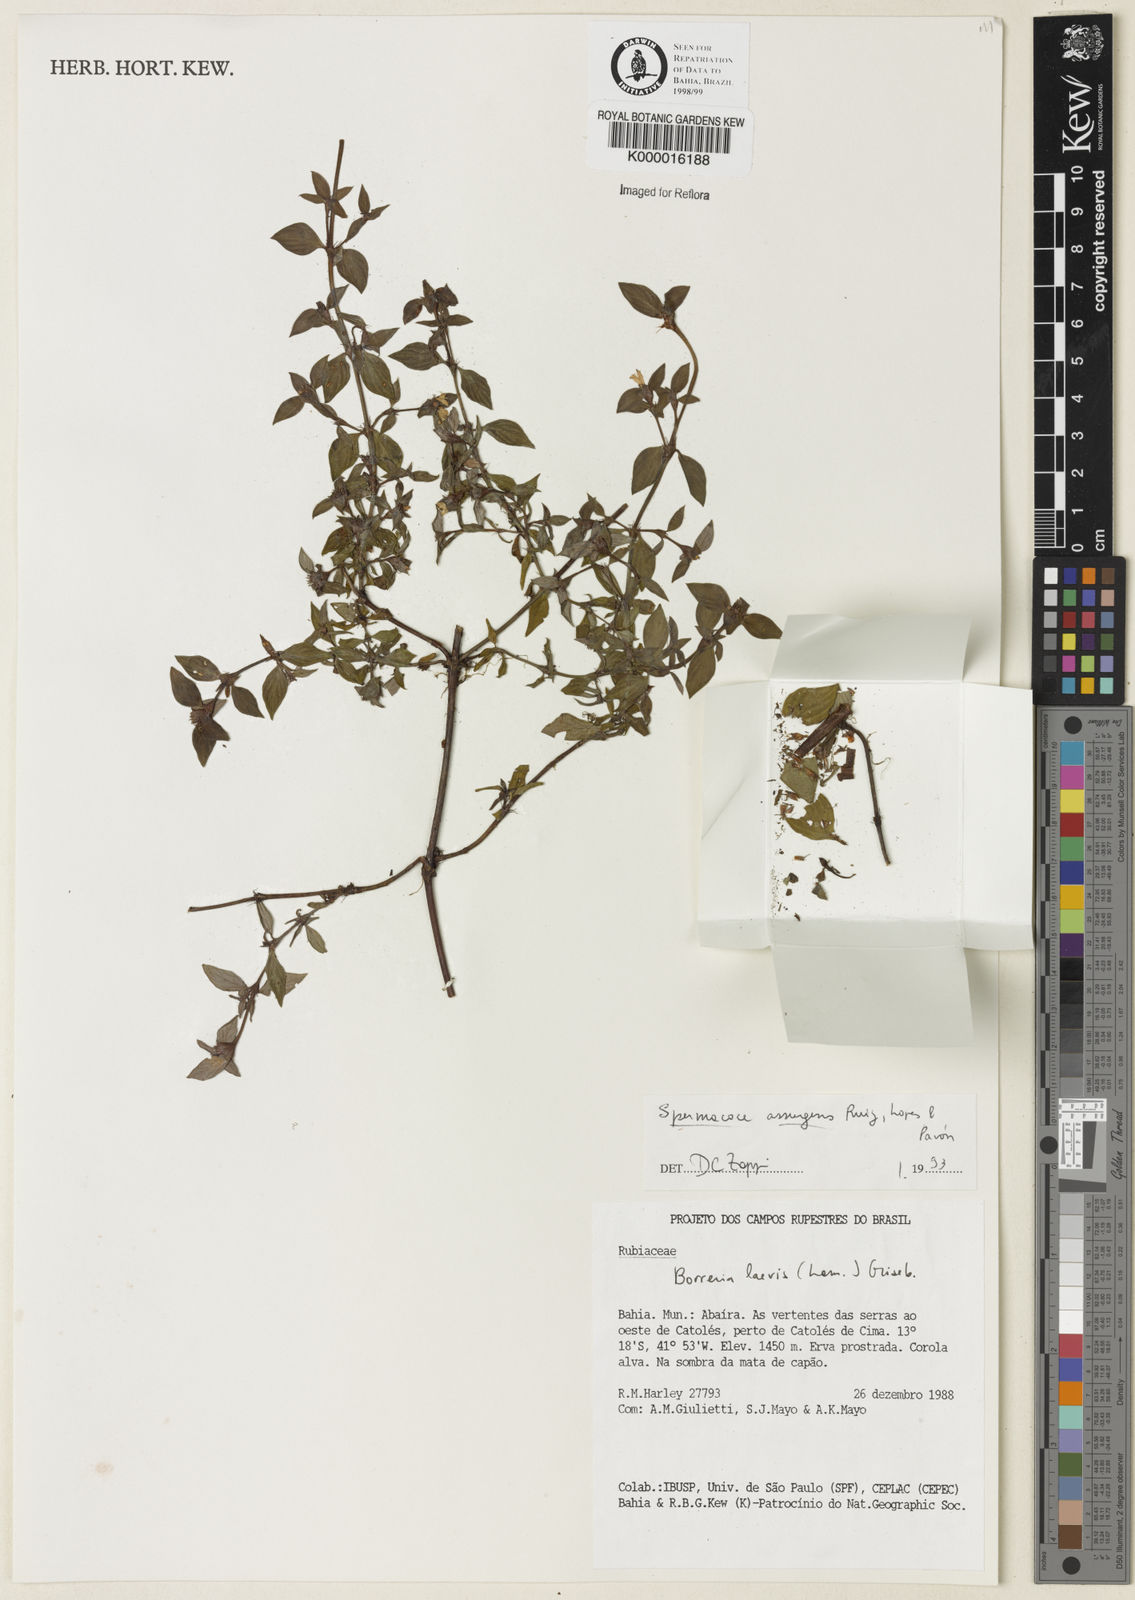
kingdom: Plantae
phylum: Tracheophyta
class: Magnoliopsida
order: Gentianales
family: Rubiaceae
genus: Spermacoce
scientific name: Spermacoce remota
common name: Woodland false buttonweed
